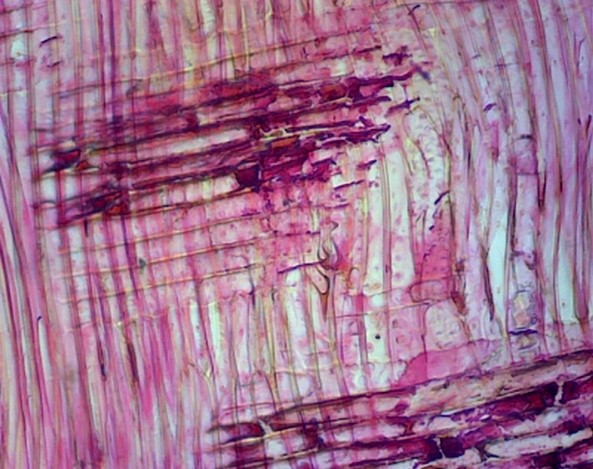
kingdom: Plantae
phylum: Tracheophyta
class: Magnoliopsida
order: Myrtales
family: Myrtaceae
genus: Eucalyptus
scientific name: Eucalyptus grandis
